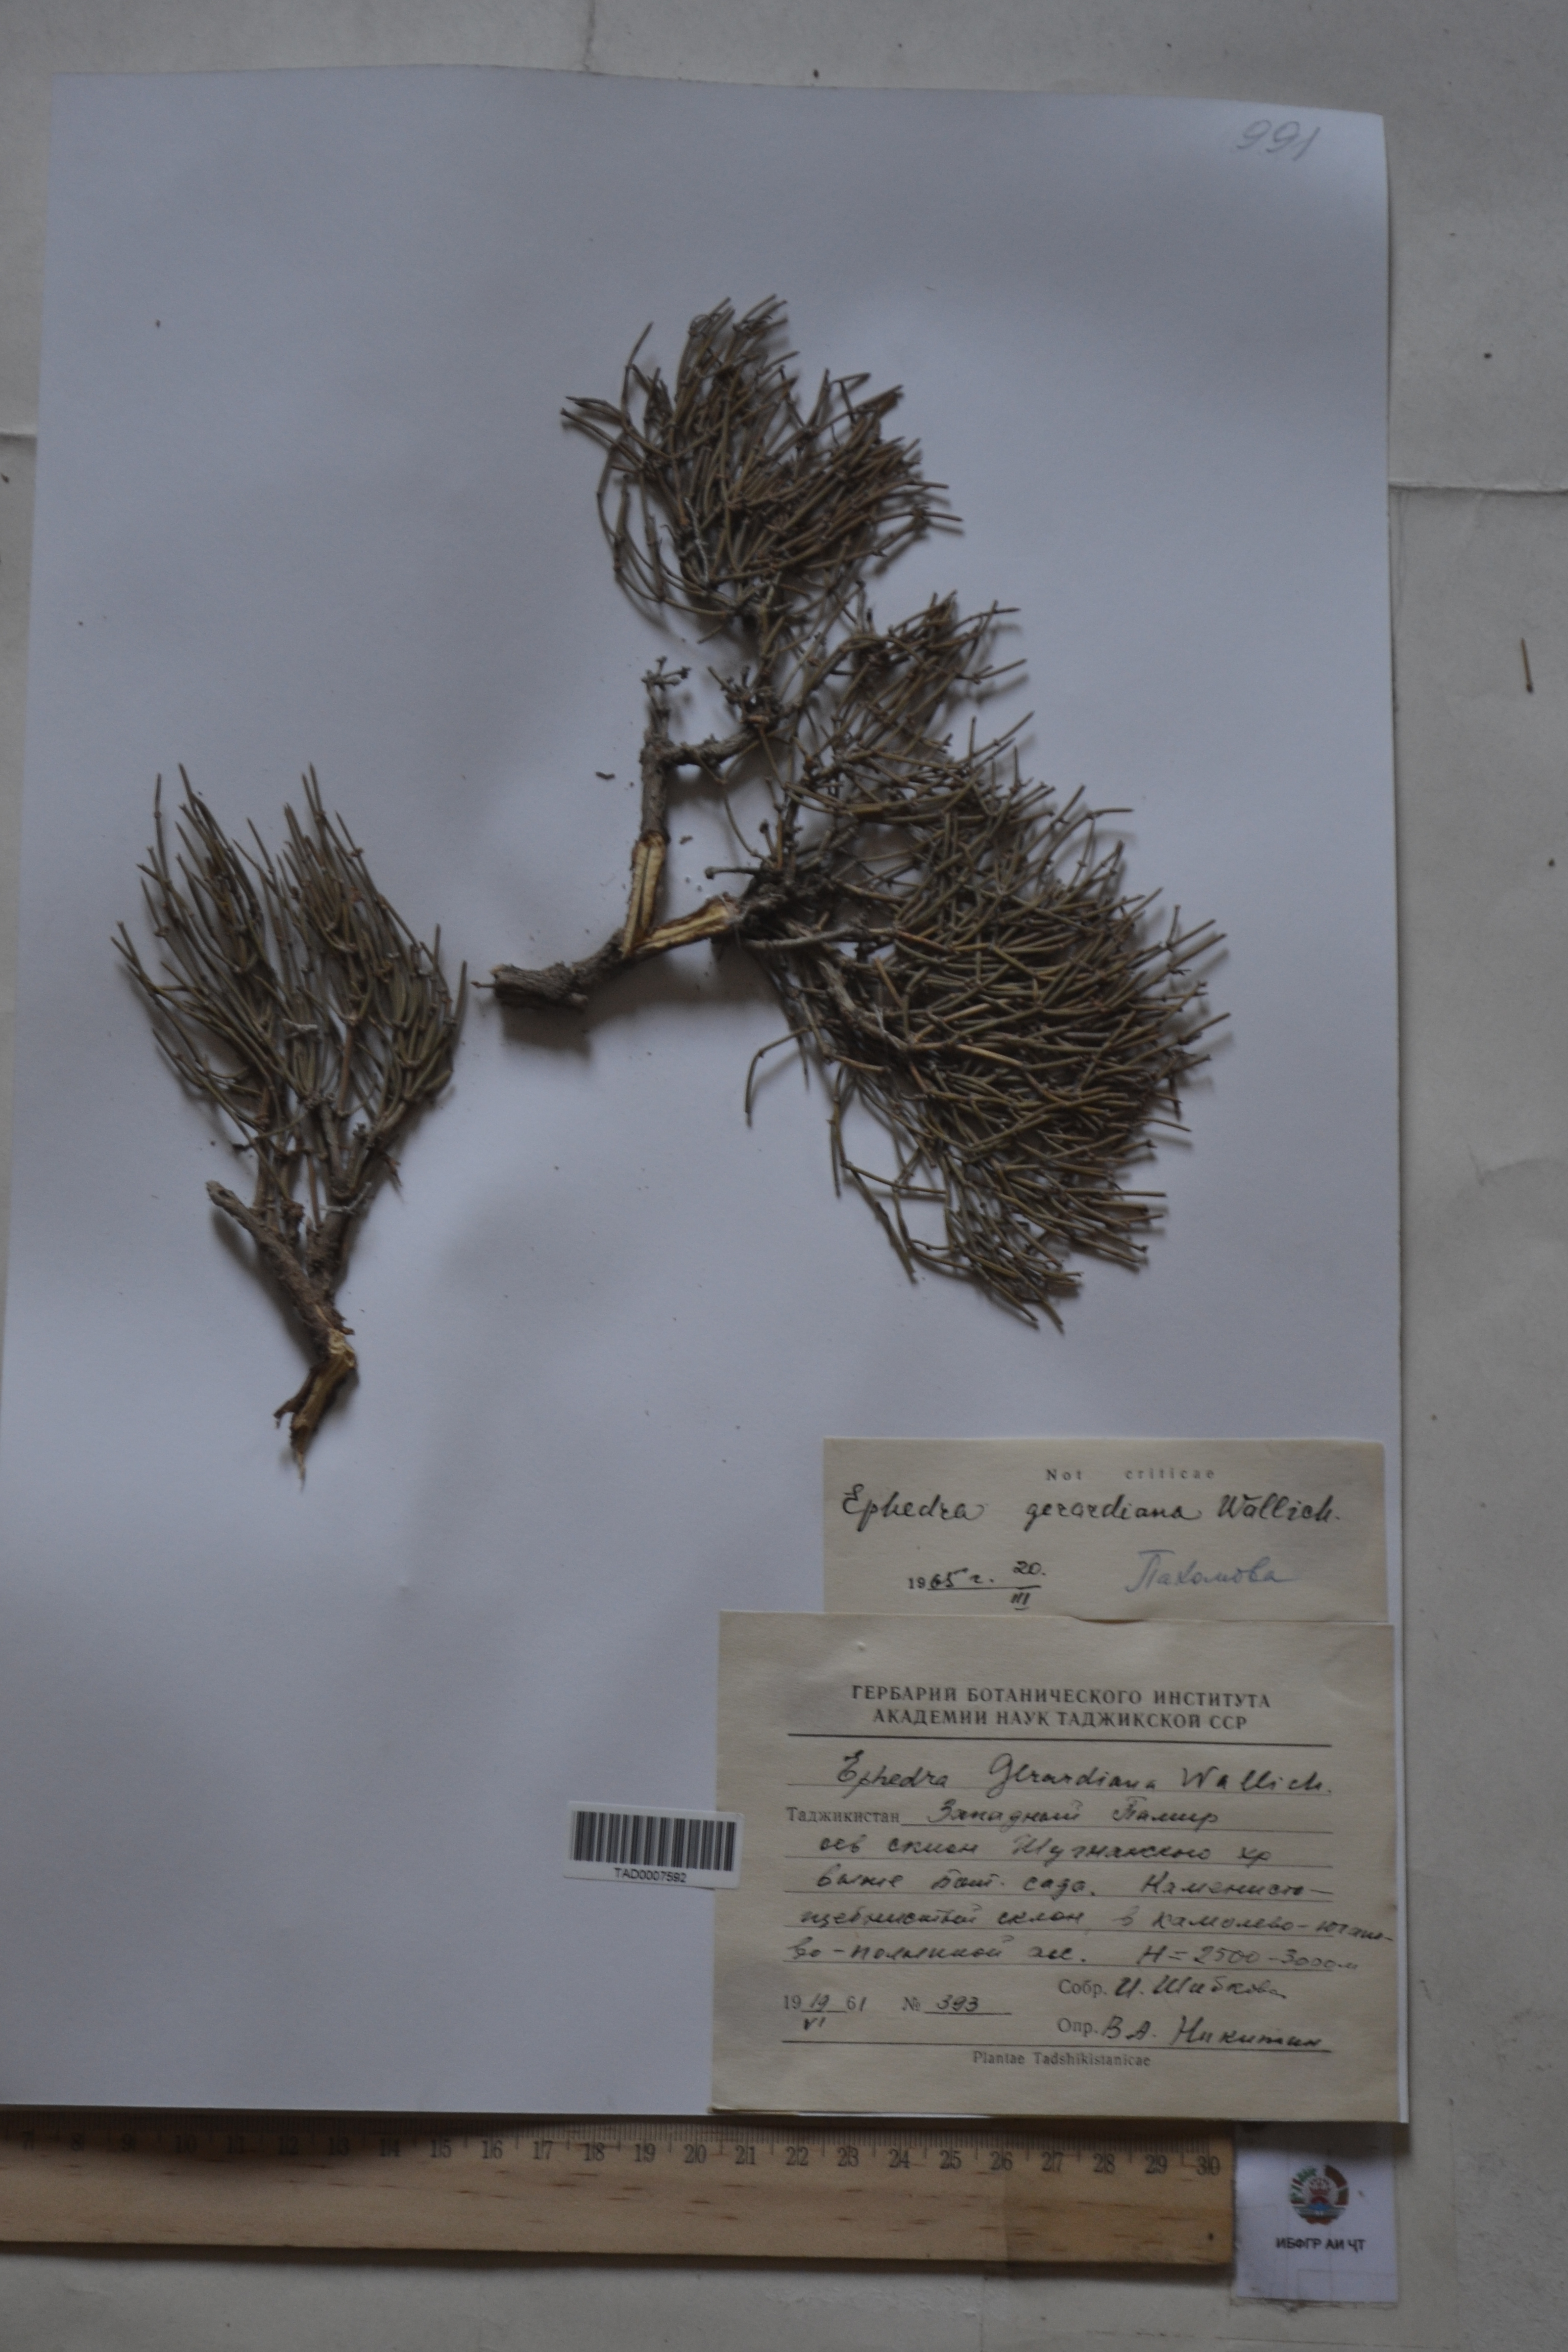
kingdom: Plantae
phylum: Tracheophyta
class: Gnetopsida
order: Ephedrales
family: Ephedraceae
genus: Ephedra
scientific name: Ephedra gerardiana
